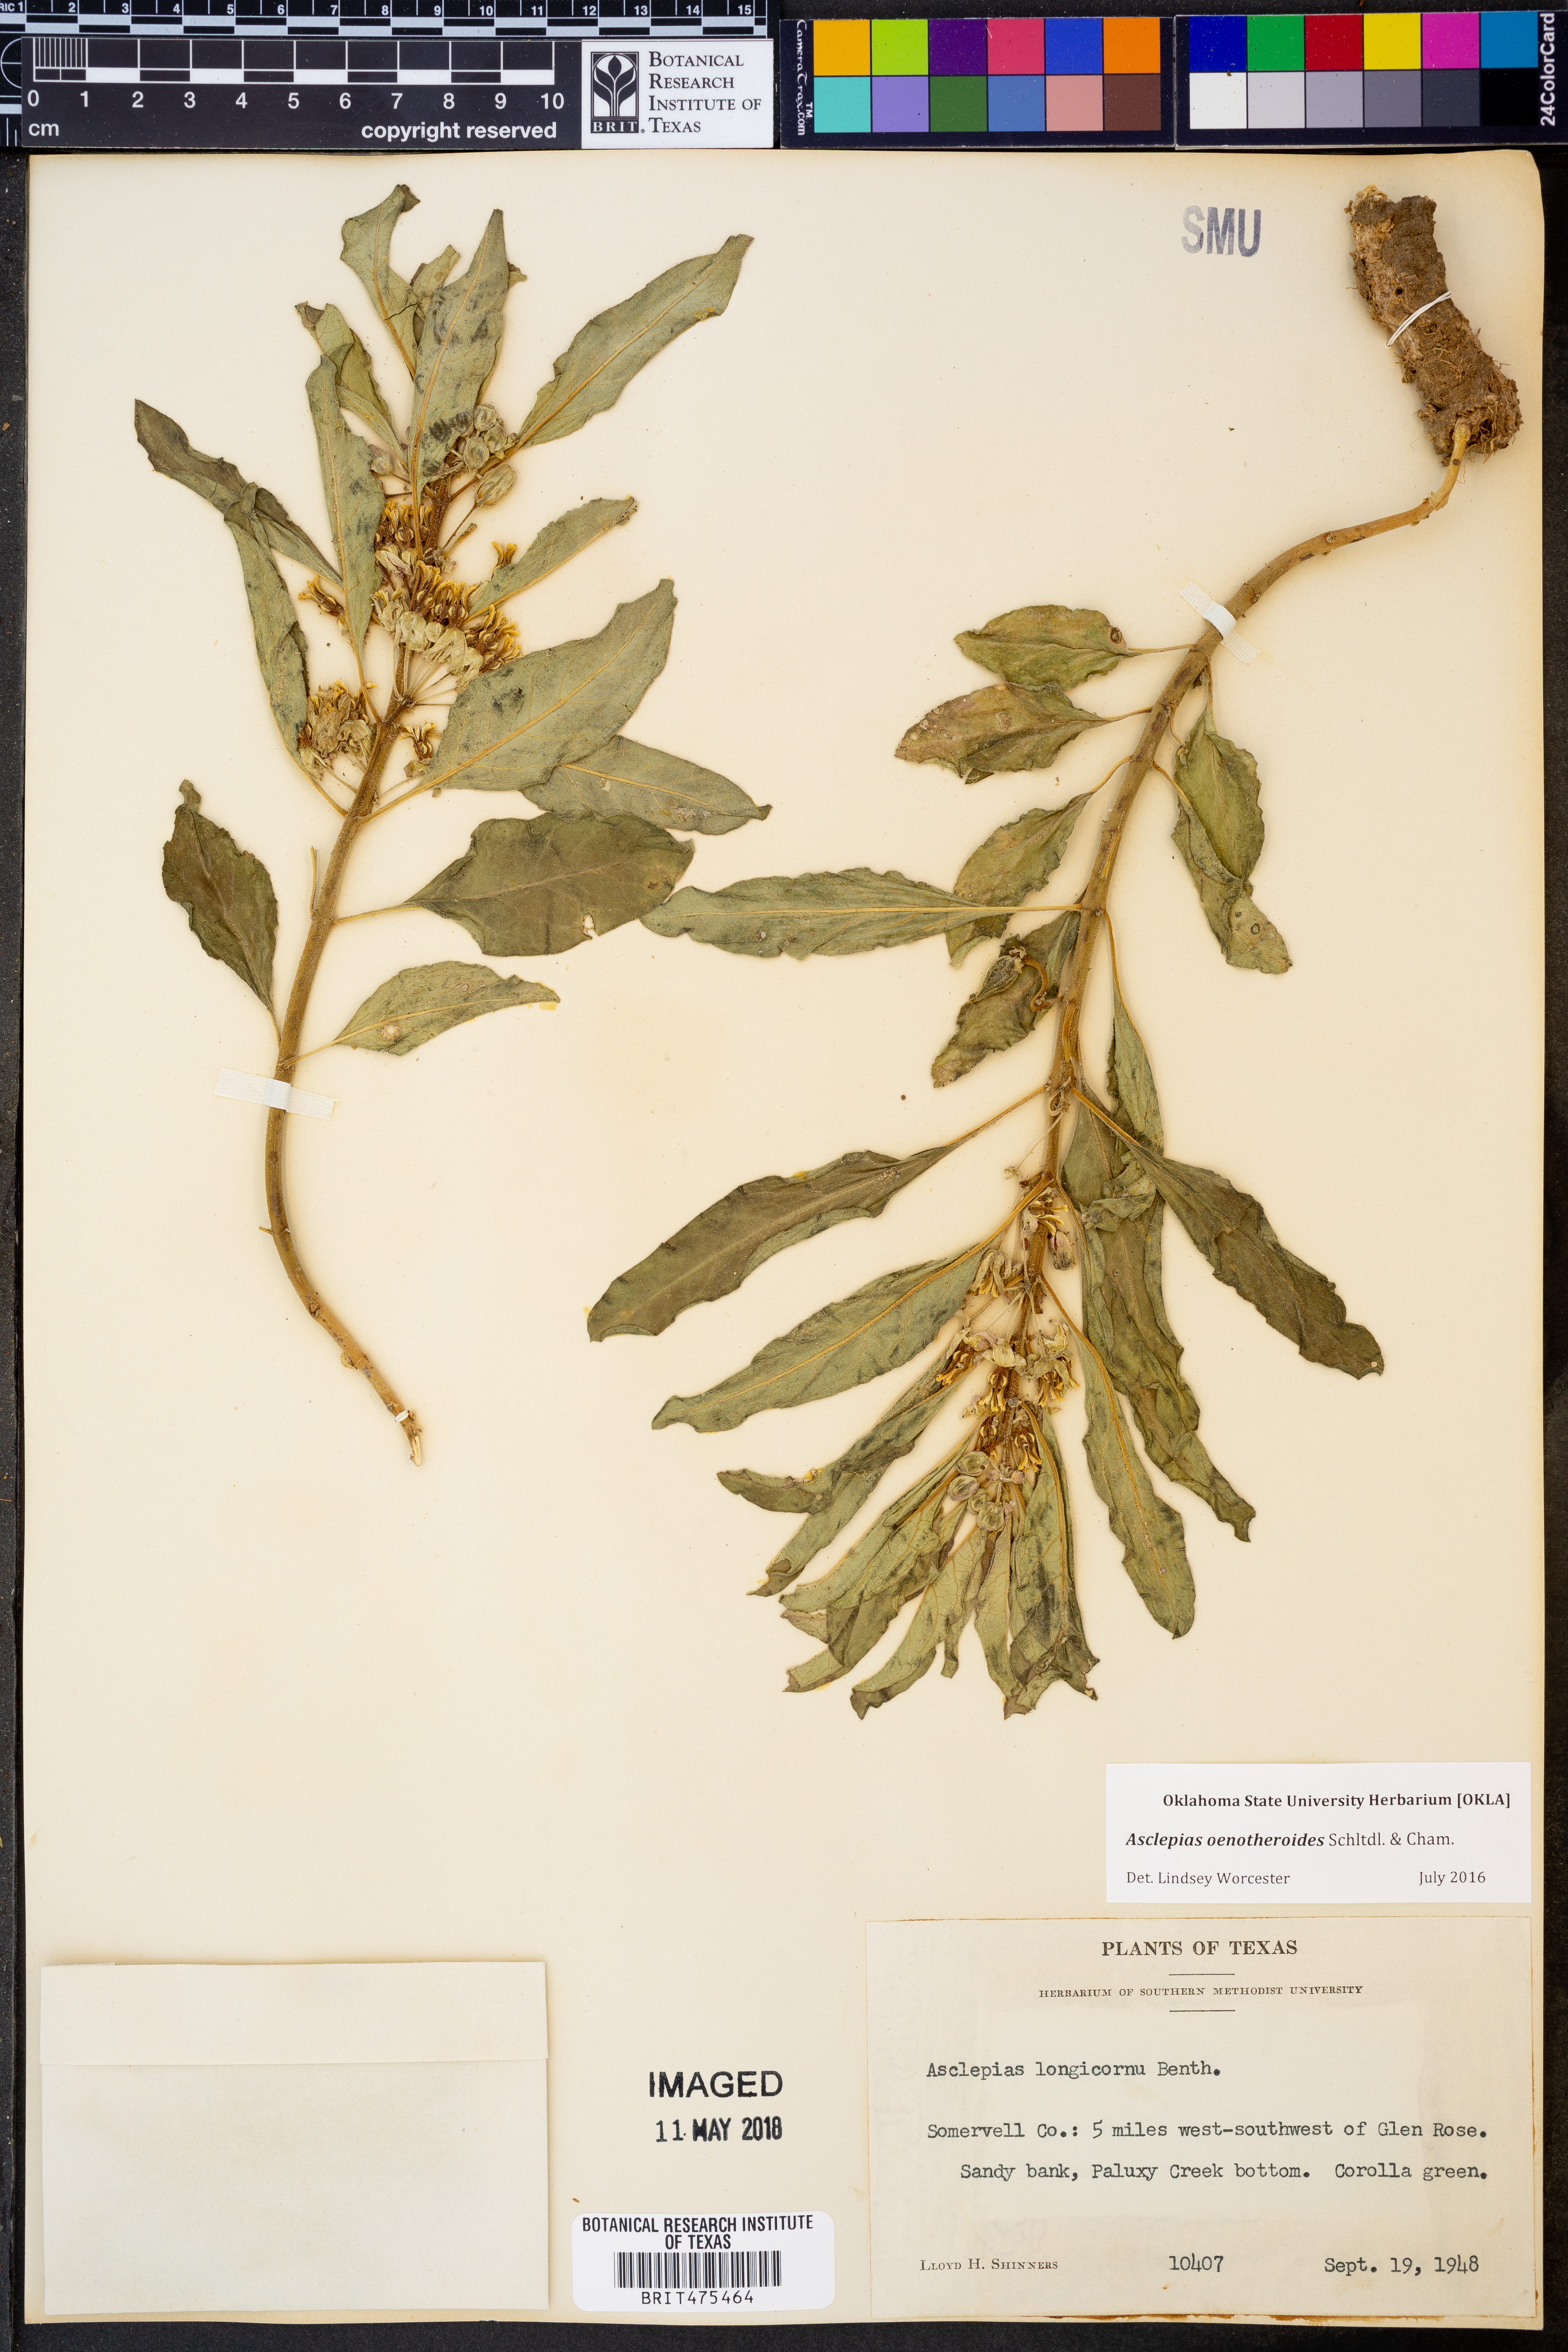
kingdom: Plantae
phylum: Tracheophyta
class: Magnoliopsida
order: Gentianales
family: Apocynaceae
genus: Asclepias
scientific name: Asclepias oenotheroides
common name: Zizotes milkweed
